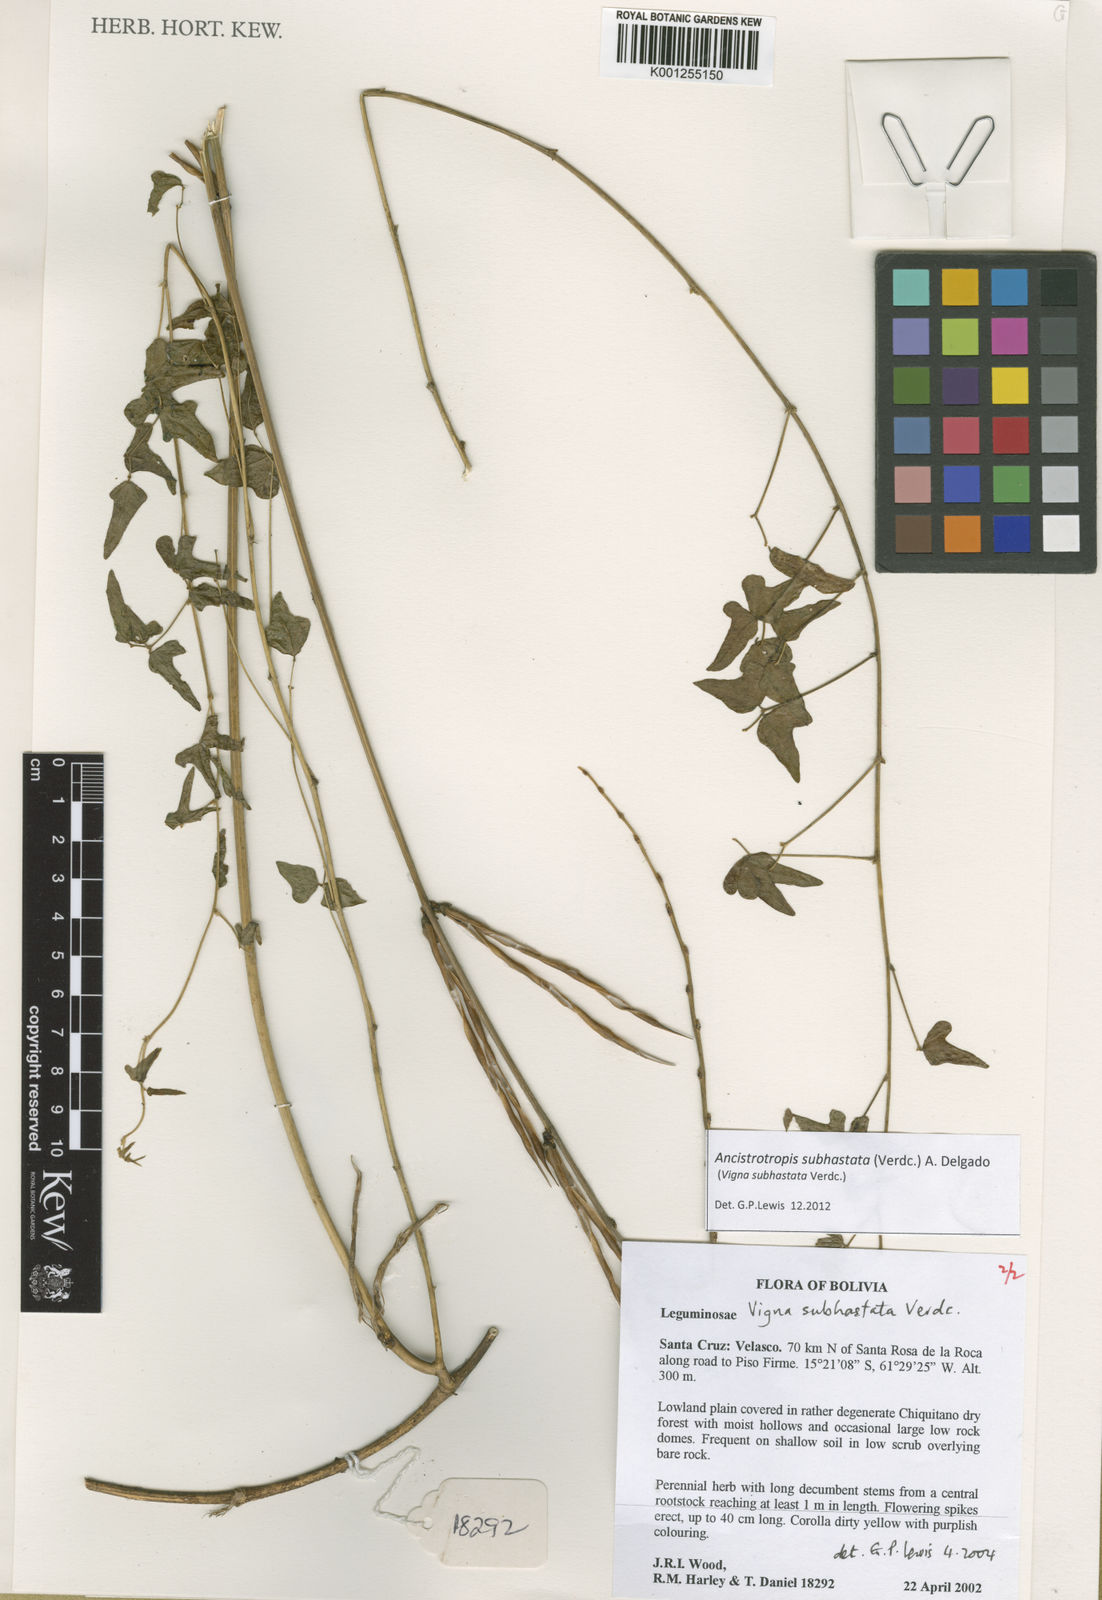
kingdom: Plantae
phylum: Tracheophyta
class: Magnoliopsida
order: Fabales
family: Fabaceae
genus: Ancistrotropis
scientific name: Ancistrotropis subhastata
